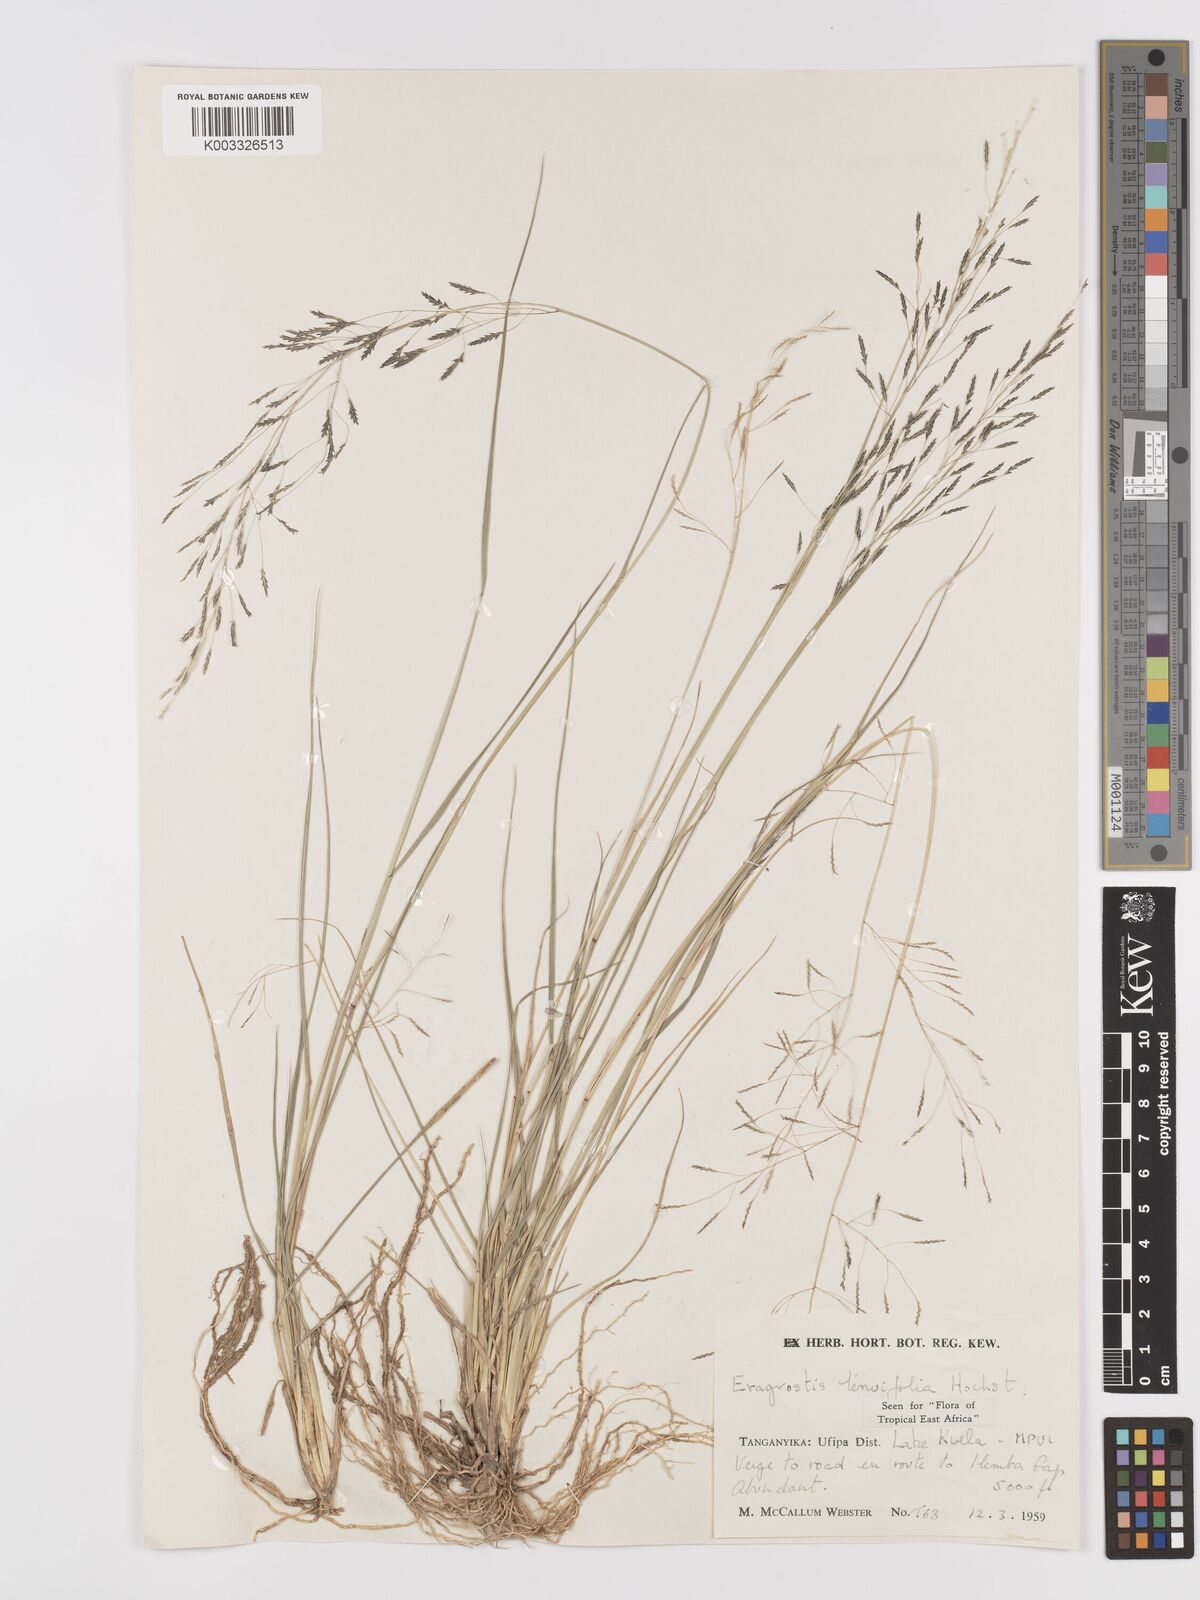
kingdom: Plantae
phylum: Tracheophyta
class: Liliopsida
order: Poales
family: Poaceae
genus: Eragrostis
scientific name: Eragrostis tenuifolia
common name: Elastic grass
